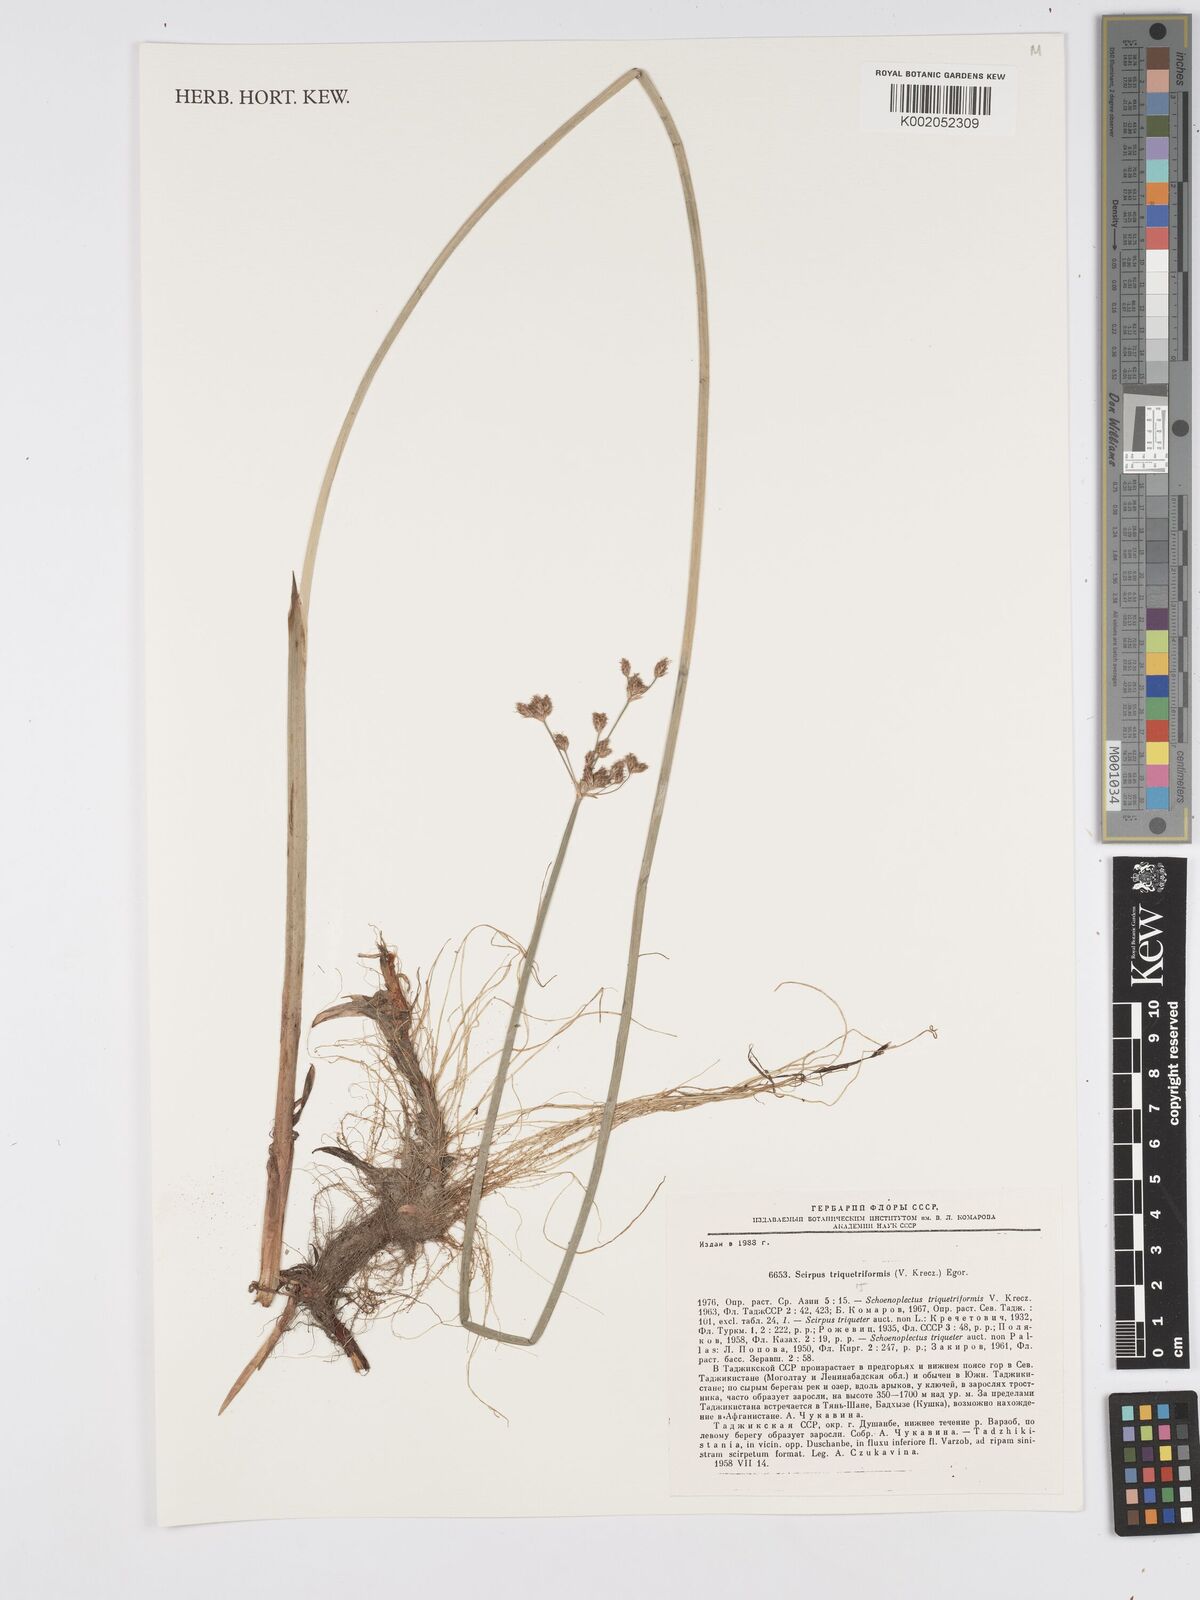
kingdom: Plantae
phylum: Tracheophyta
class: Liliopsida
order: Poales
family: Cyperaceae
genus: Schoenoplectus
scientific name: Schoenoplectus carinatus
